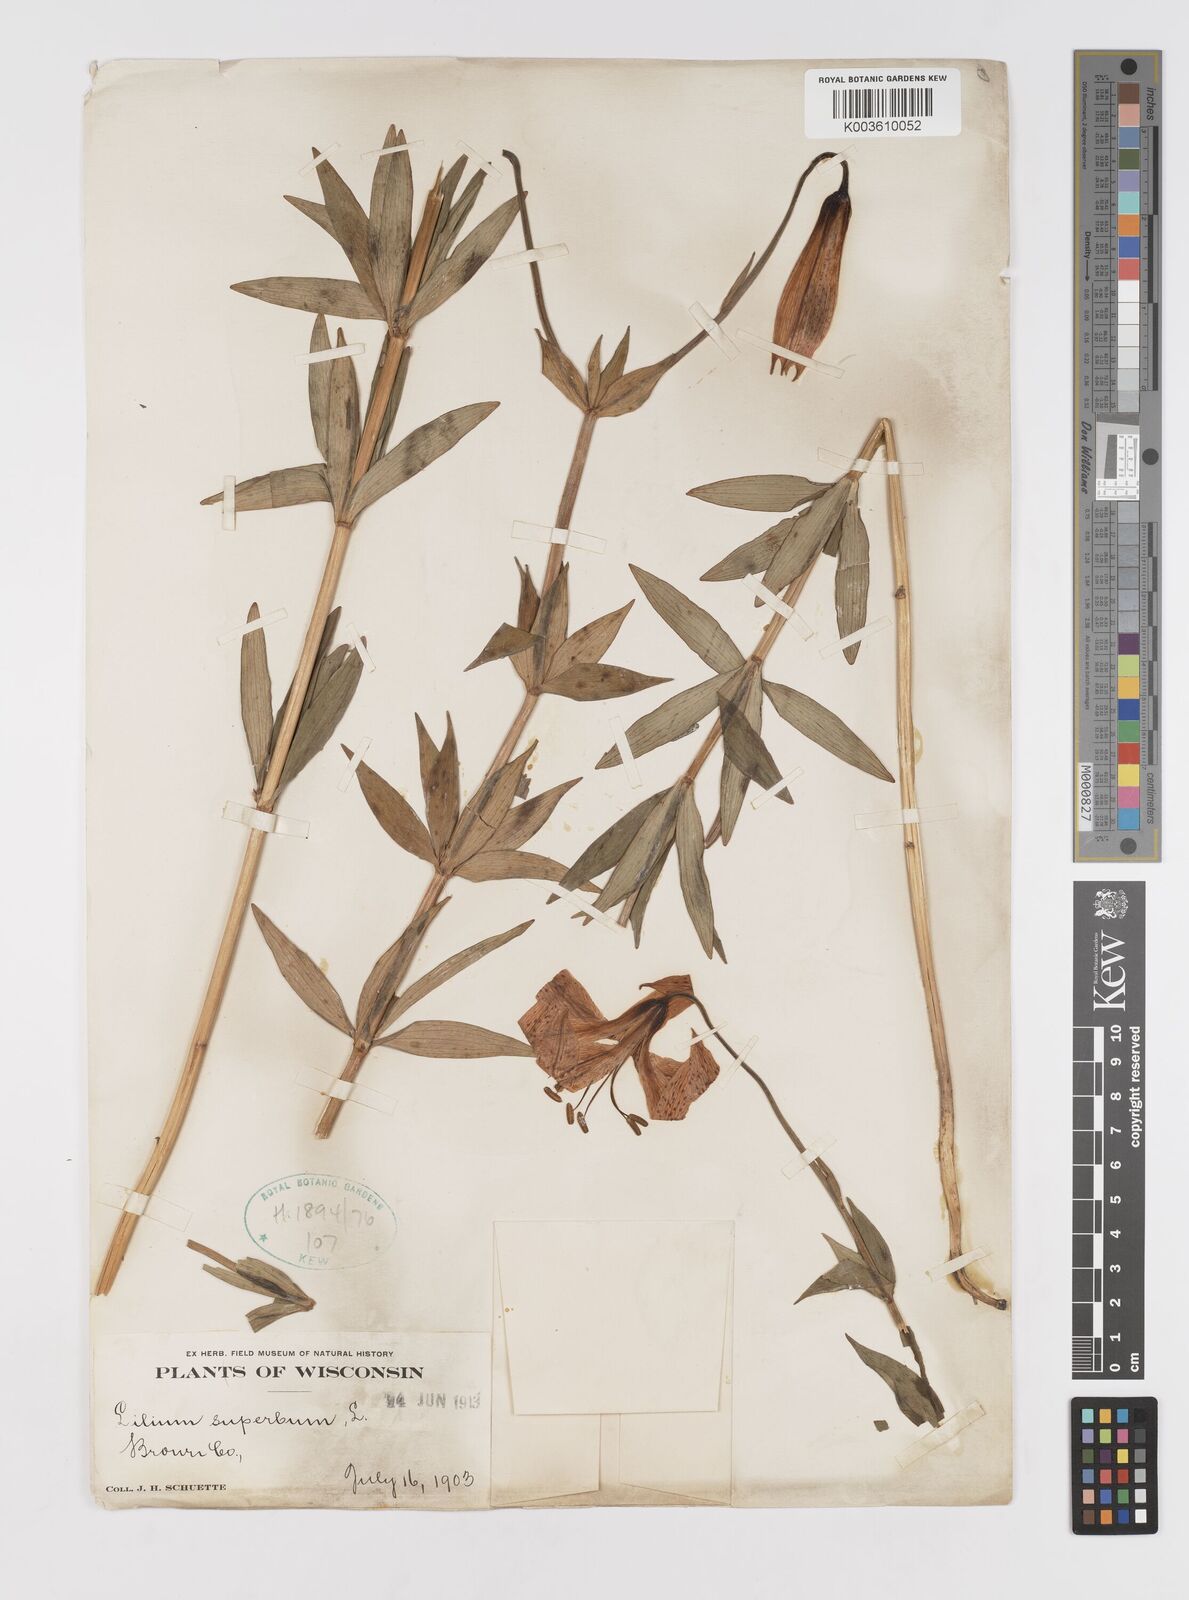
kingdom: Plantae
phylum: Tracheophyta
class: Liliopsida
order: Liliales
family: Liliaceae
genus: Lilium
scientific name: Lilium superbum
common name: American turk's-cap lily
